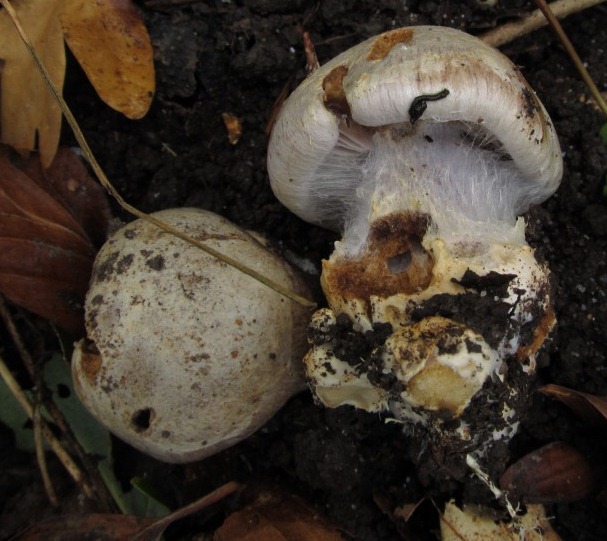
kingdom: Fungi
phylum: Basidiomycota
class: Agaricomycetes
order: Agaricales
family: Cortinariaceae
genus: Cortinarius
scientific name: Cortinarius foetens
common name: stribet slørhat
